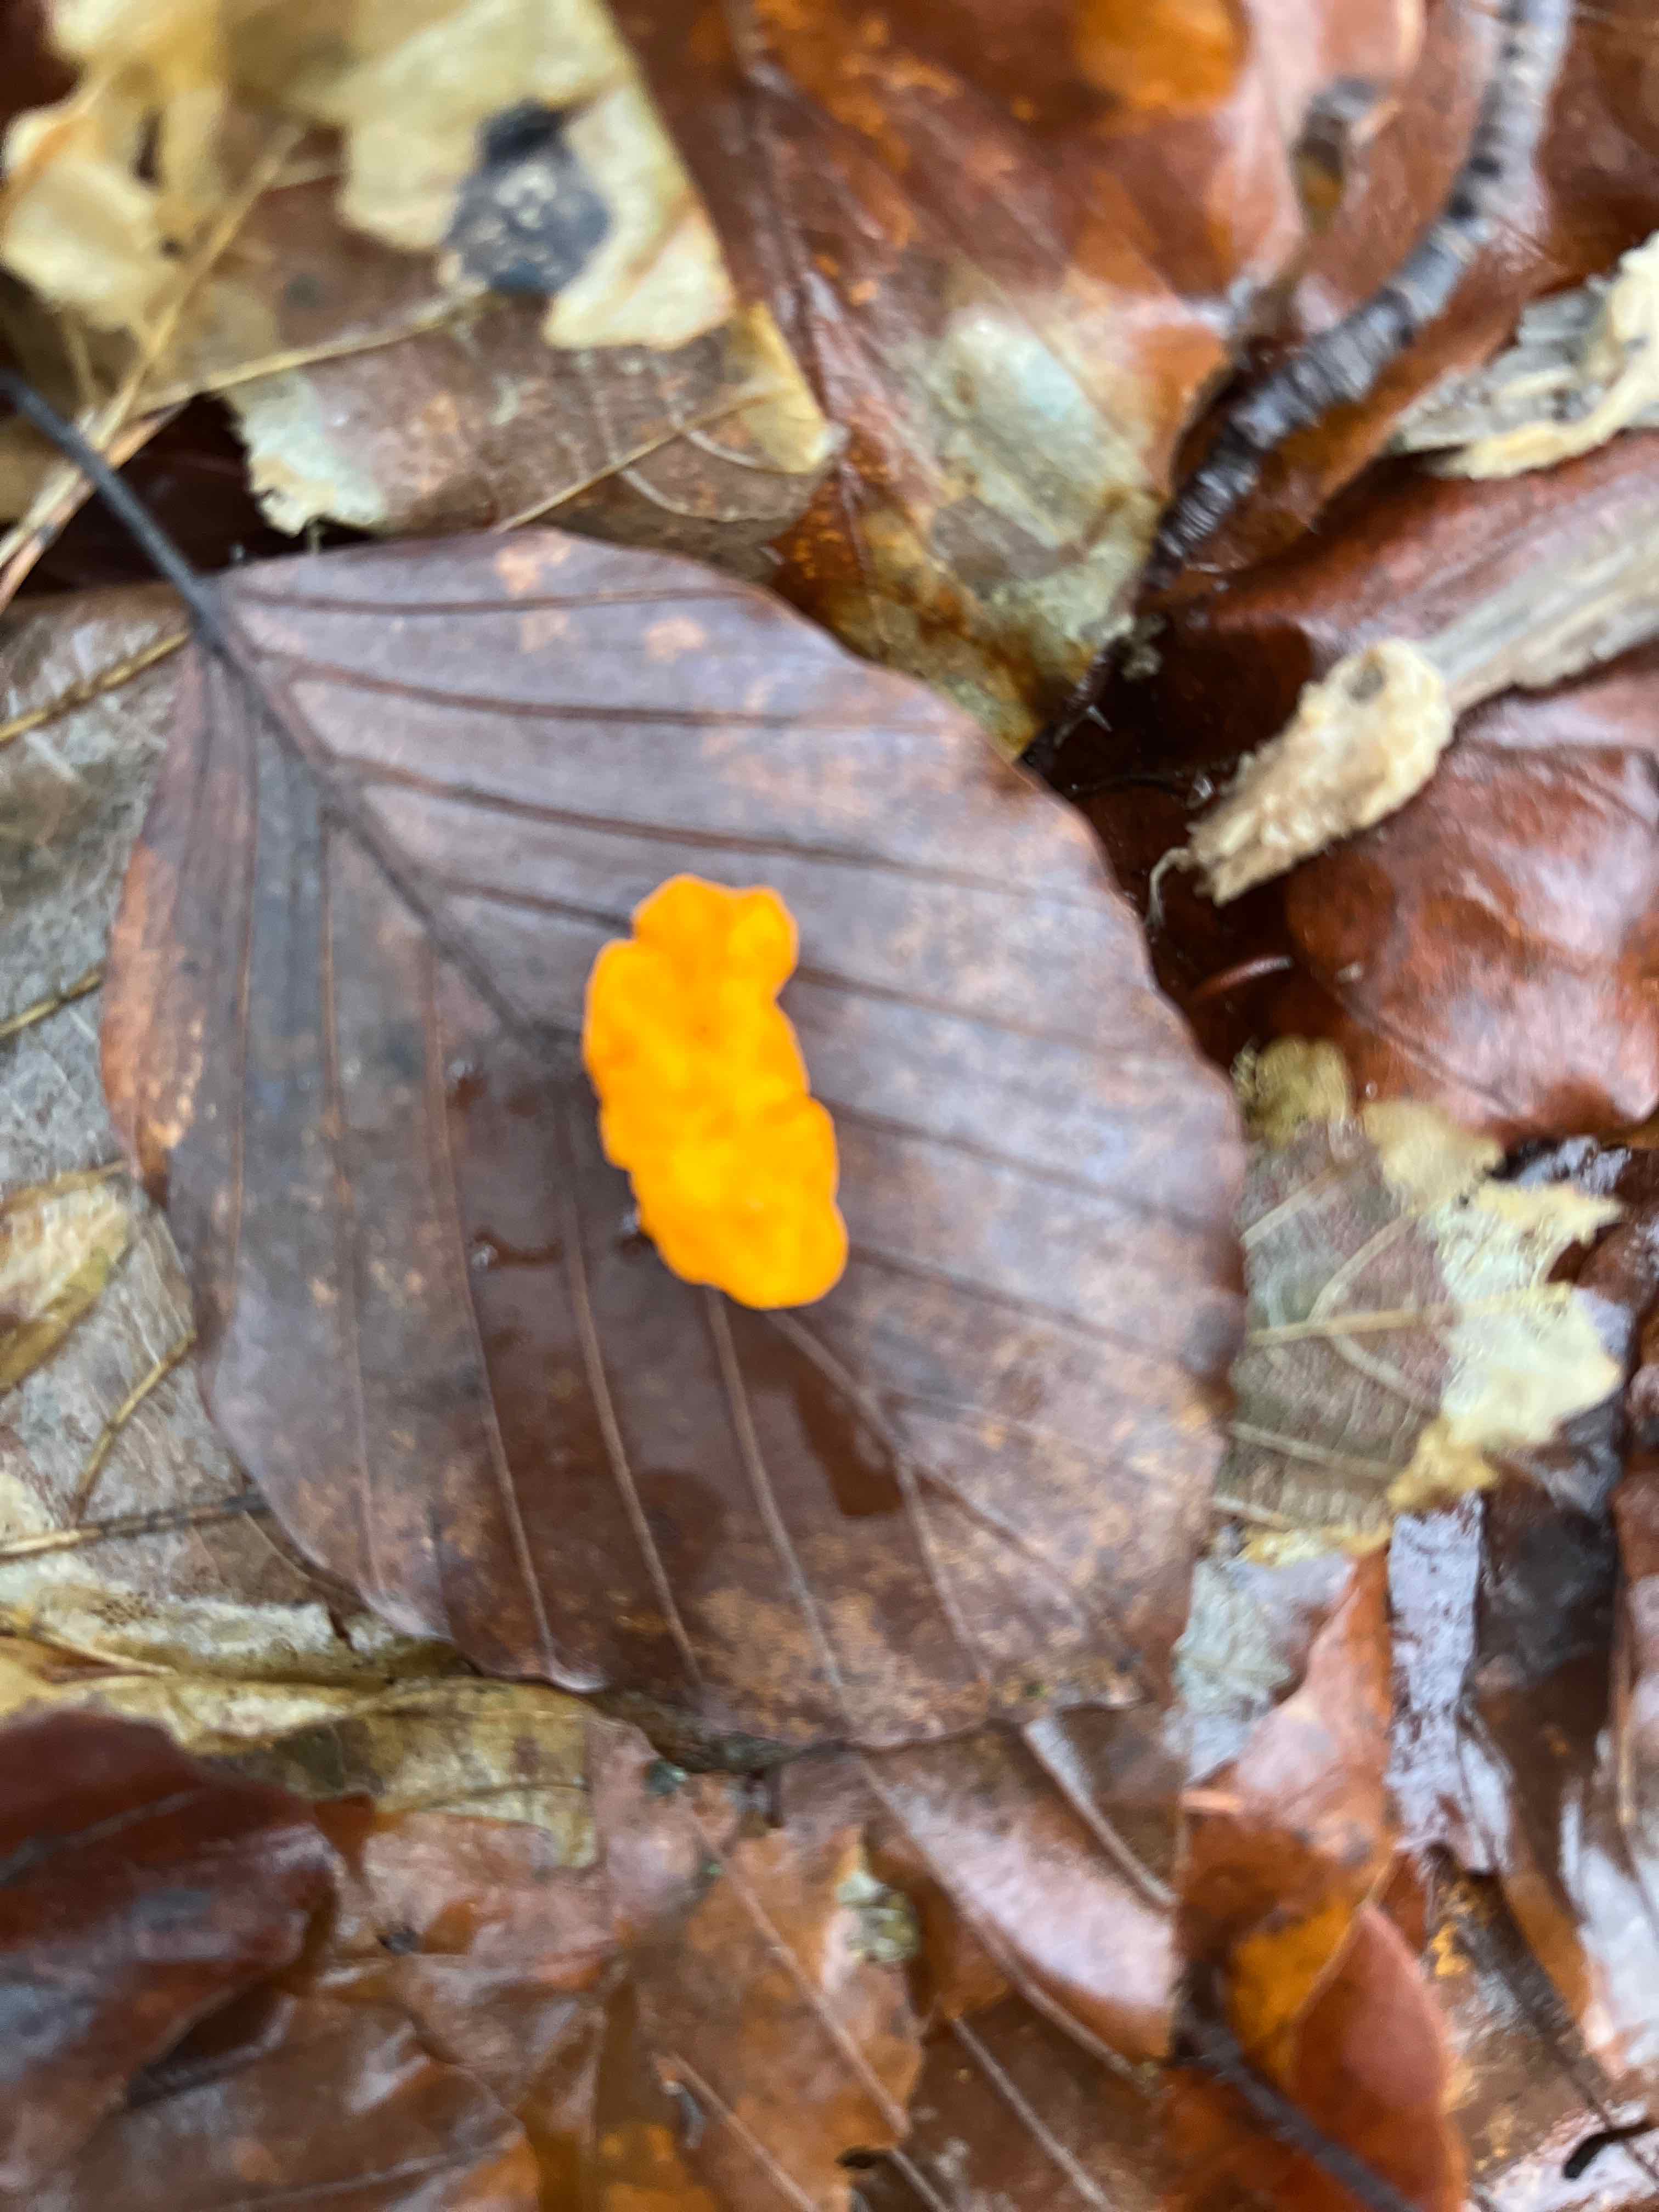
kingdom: Fungi
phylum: Basidiomycota
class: Tremellomycetes
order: Tremellales
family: Tremellaceae
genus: Tremella
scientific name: Tremella mesenterica
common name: gul bævresvamp
